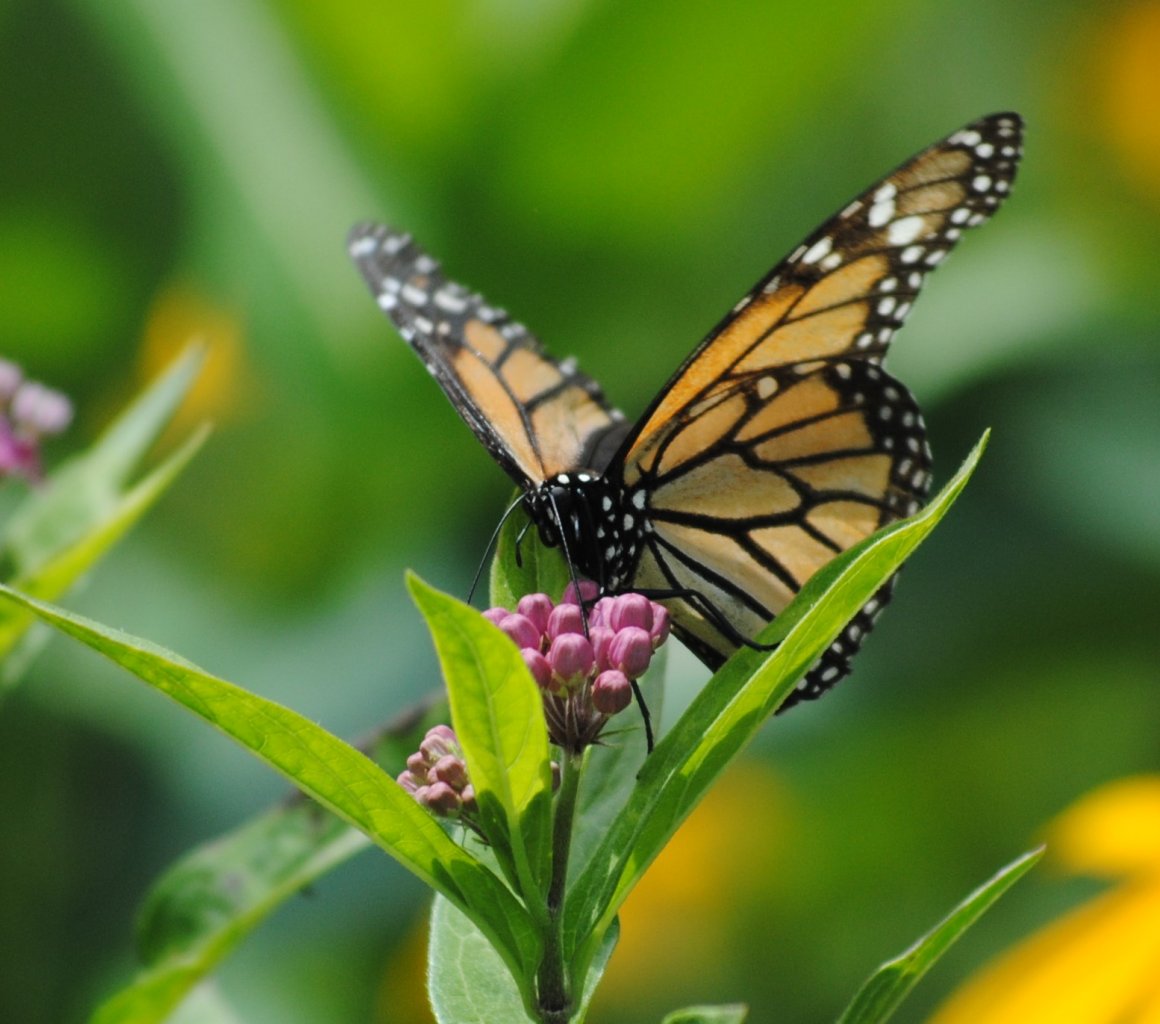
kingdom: Animalia
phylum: Arthropoda
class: Insecta
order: Lepidoptera
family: Nymphalidae
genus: Danaus
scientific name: Danaus plexippus
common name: Monarch
